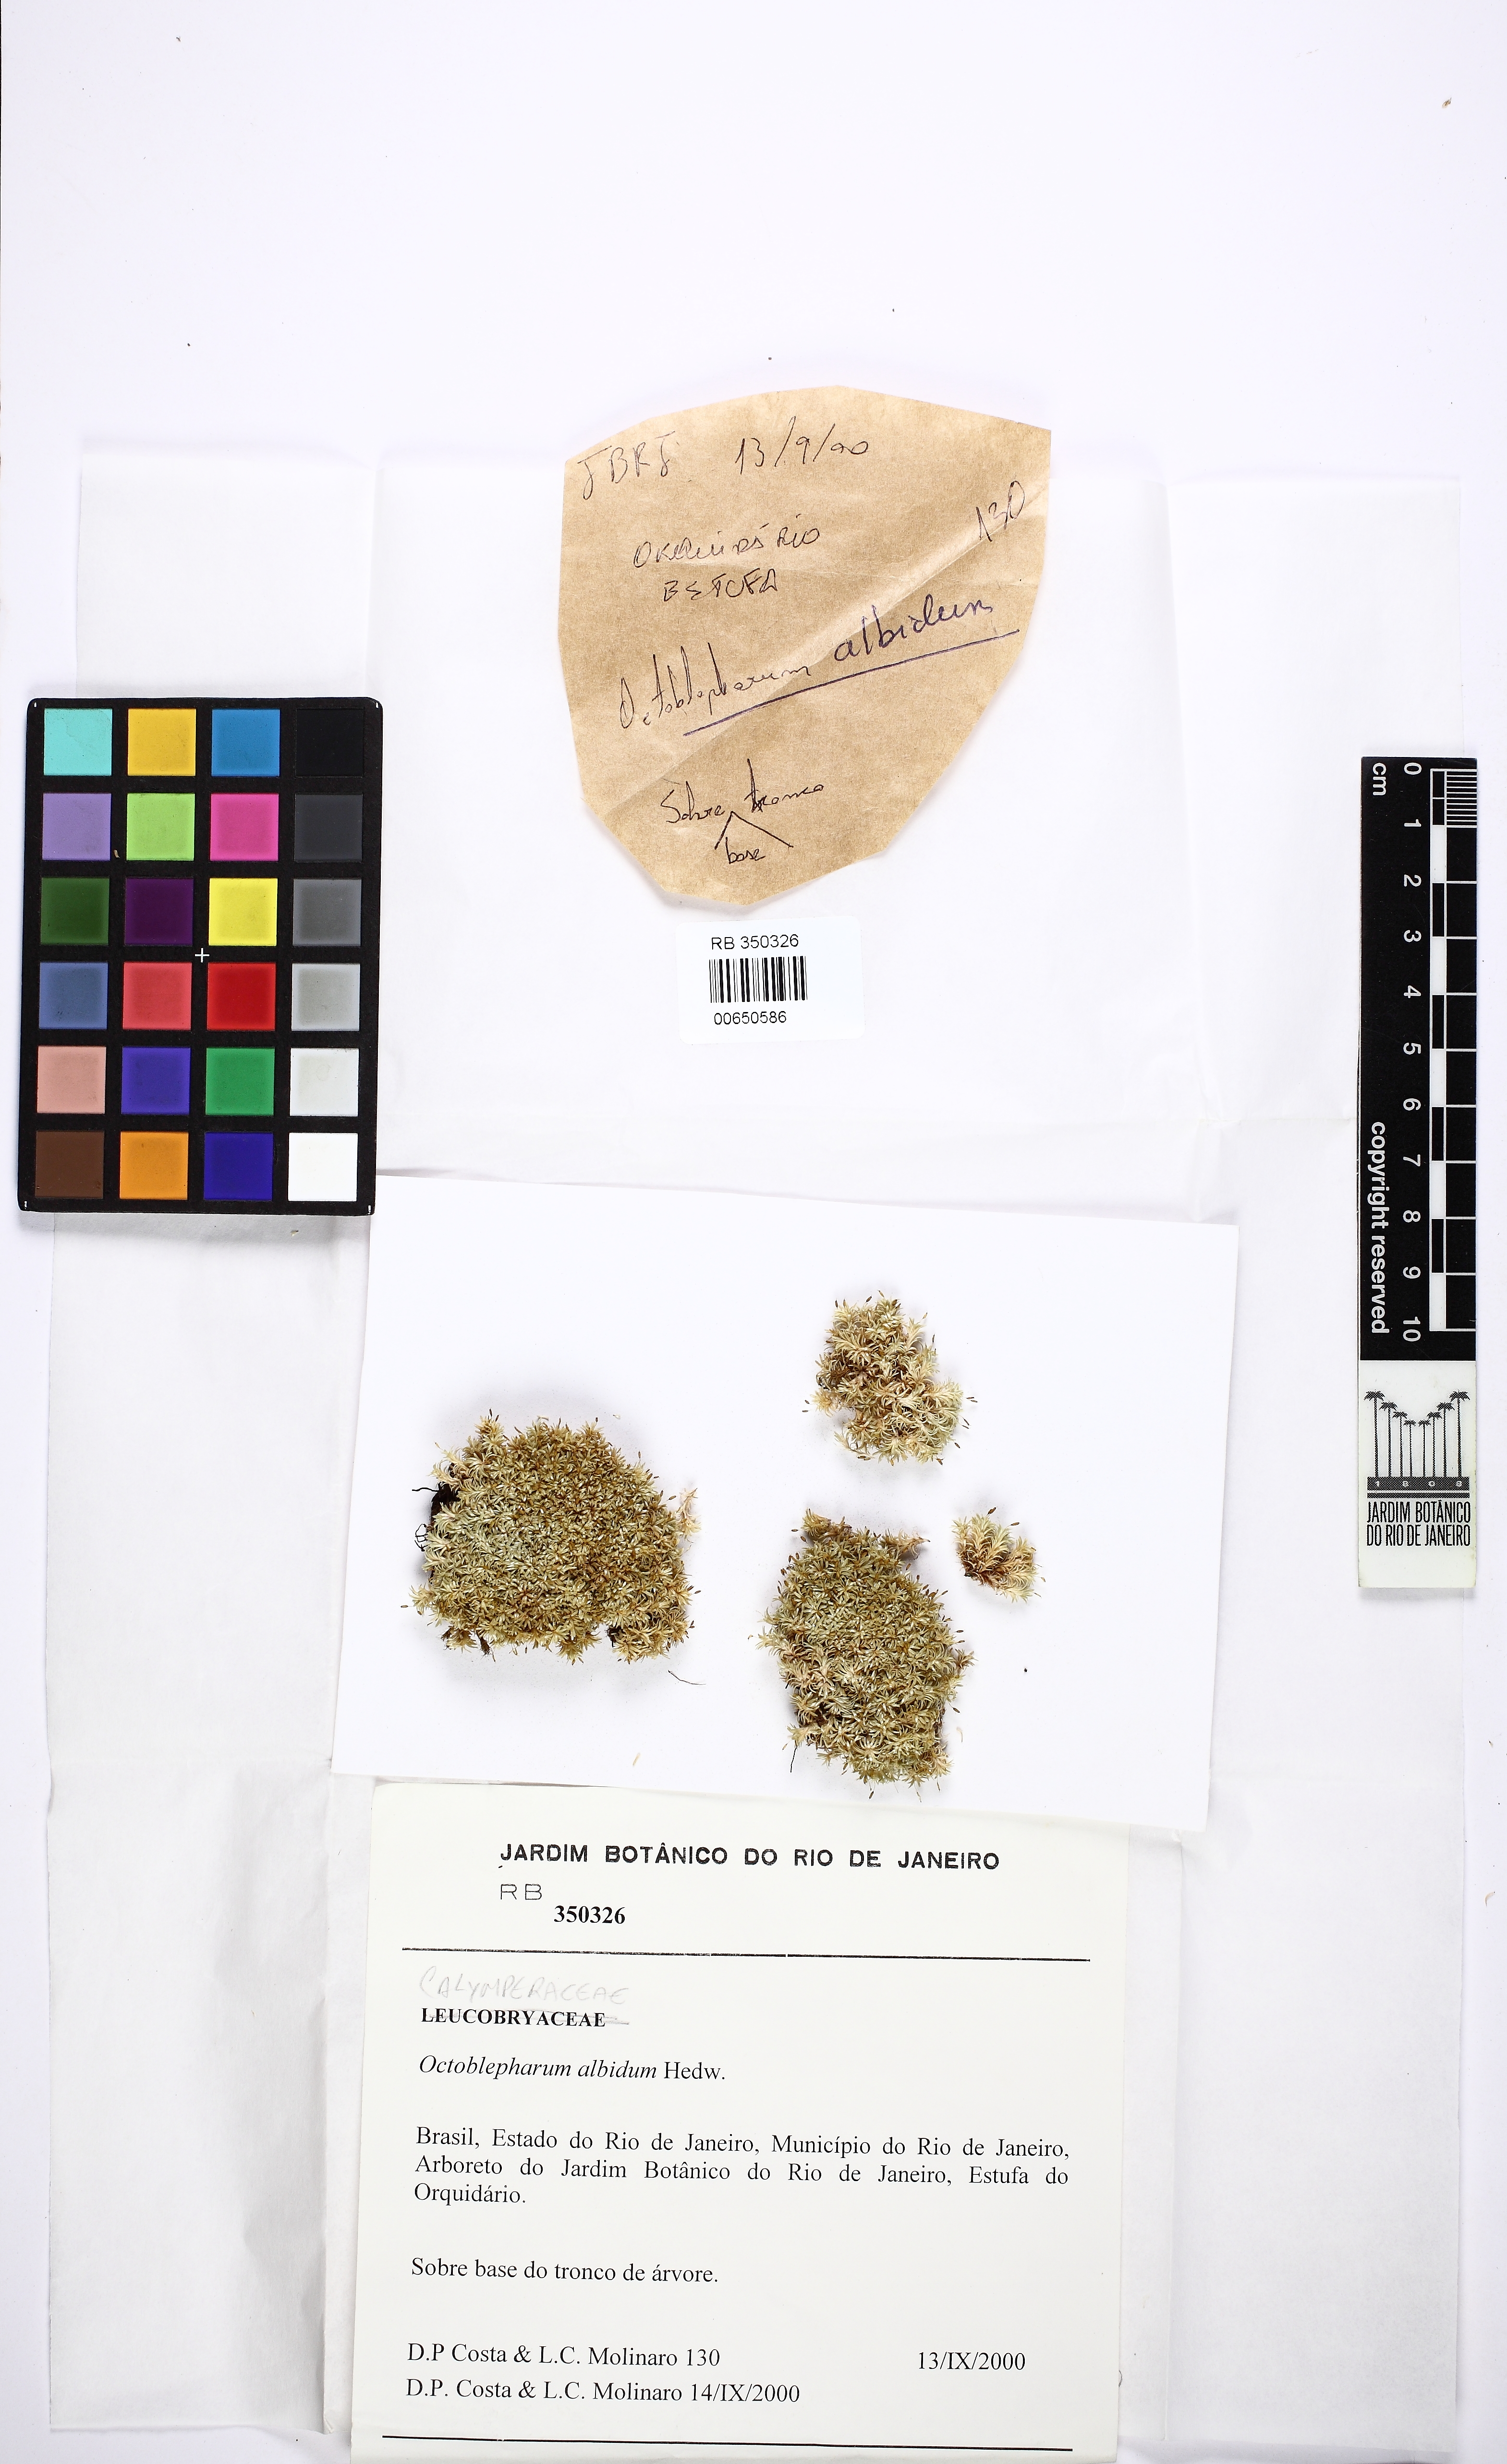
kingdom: Plantae
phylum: Bryophyta
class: Bryopsida
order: Dicranales
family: Octoblepharaceae
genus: Octoblepharum
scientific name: Octoblepharum albidum
